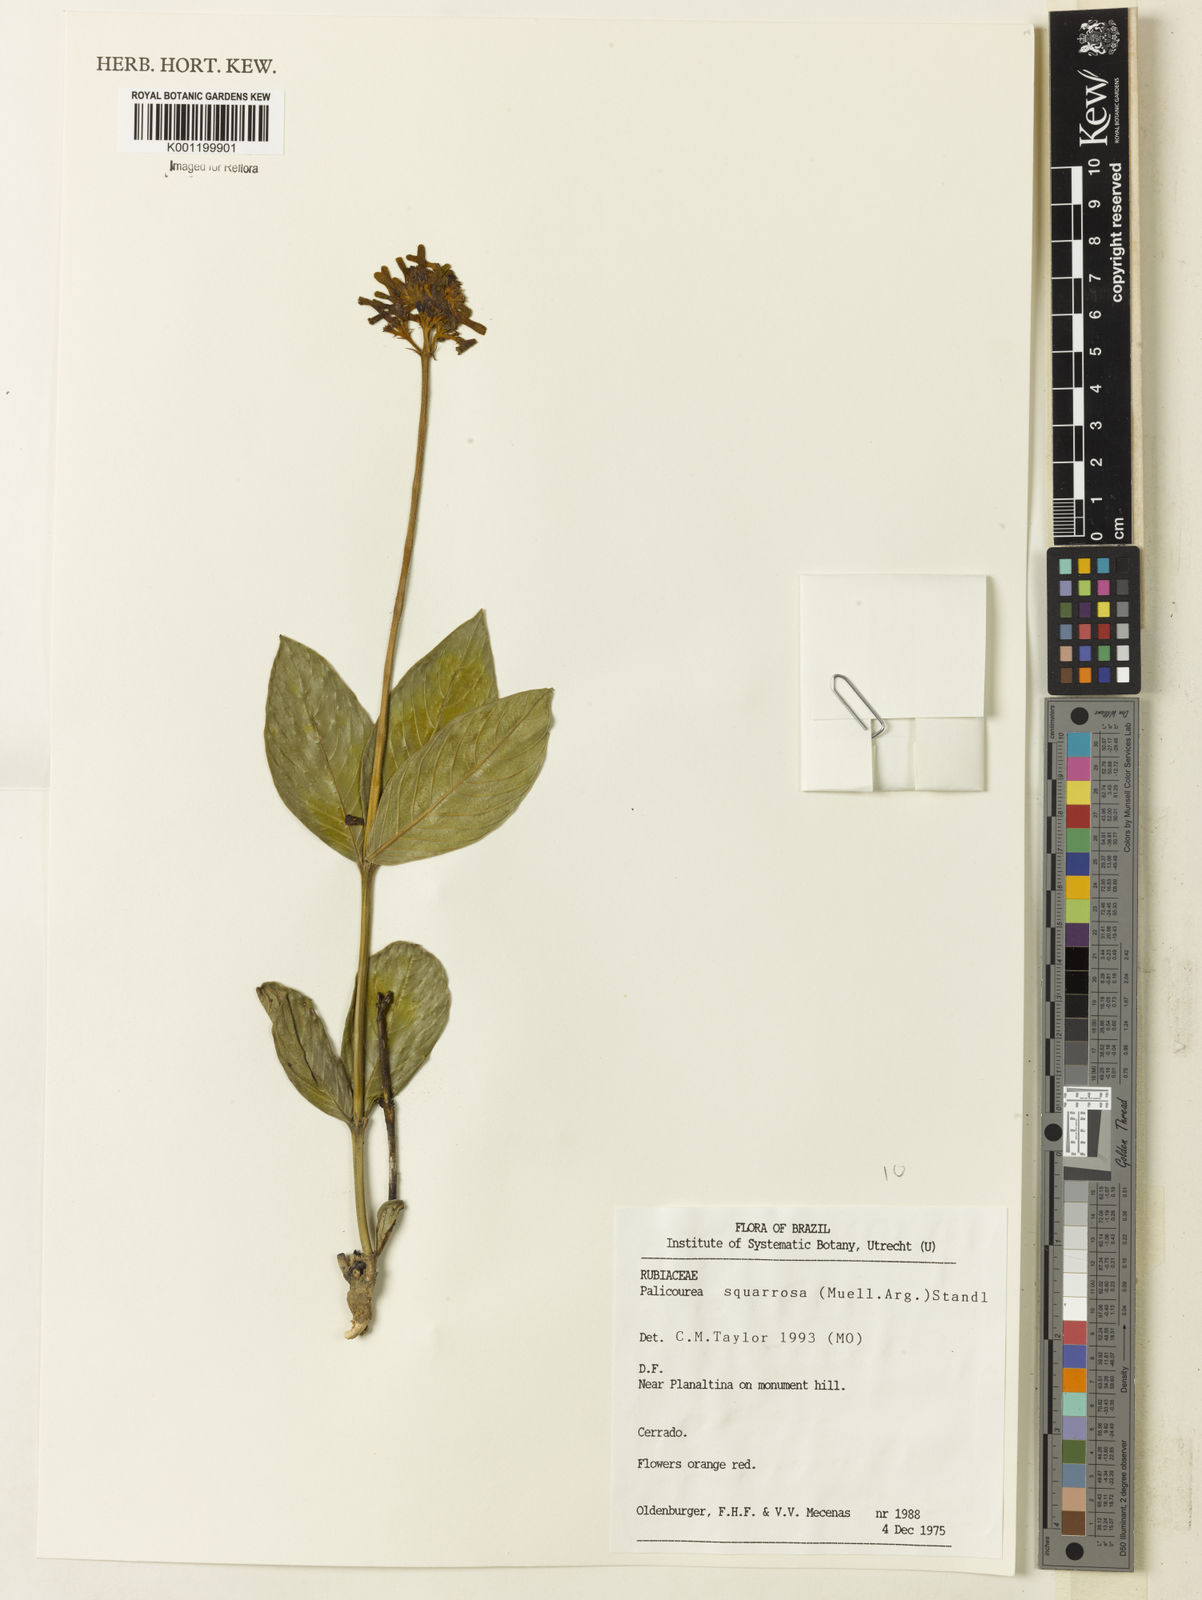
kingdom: Plantae
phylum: Tracheophyta
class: Magnoliopsida
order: Gentianales
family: Rubiaceae
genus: Palicourea
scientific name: Palicourea
